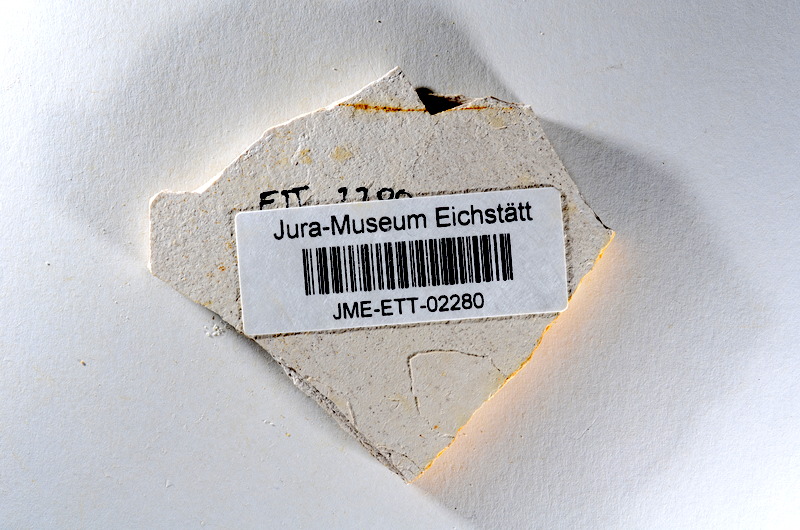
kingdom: Animalia
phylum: Chordata
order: Salmoniformes
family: Orthogonikleithridae
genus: Orthogonikleithrus
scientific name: Orthogonikleithrus hoelli
